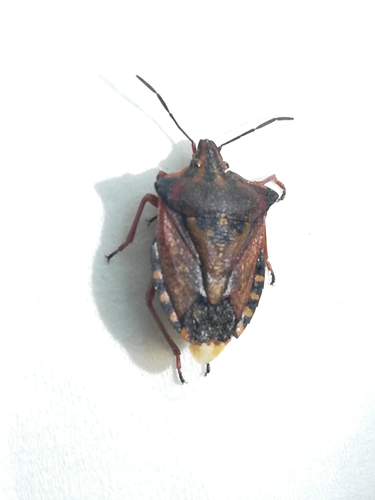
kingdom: Animalia
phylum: Arthropoda
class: Insecta
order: Hemiptera
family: Pentatomidae
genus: Carpocoris
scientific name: Carpocoris mediterraneus
